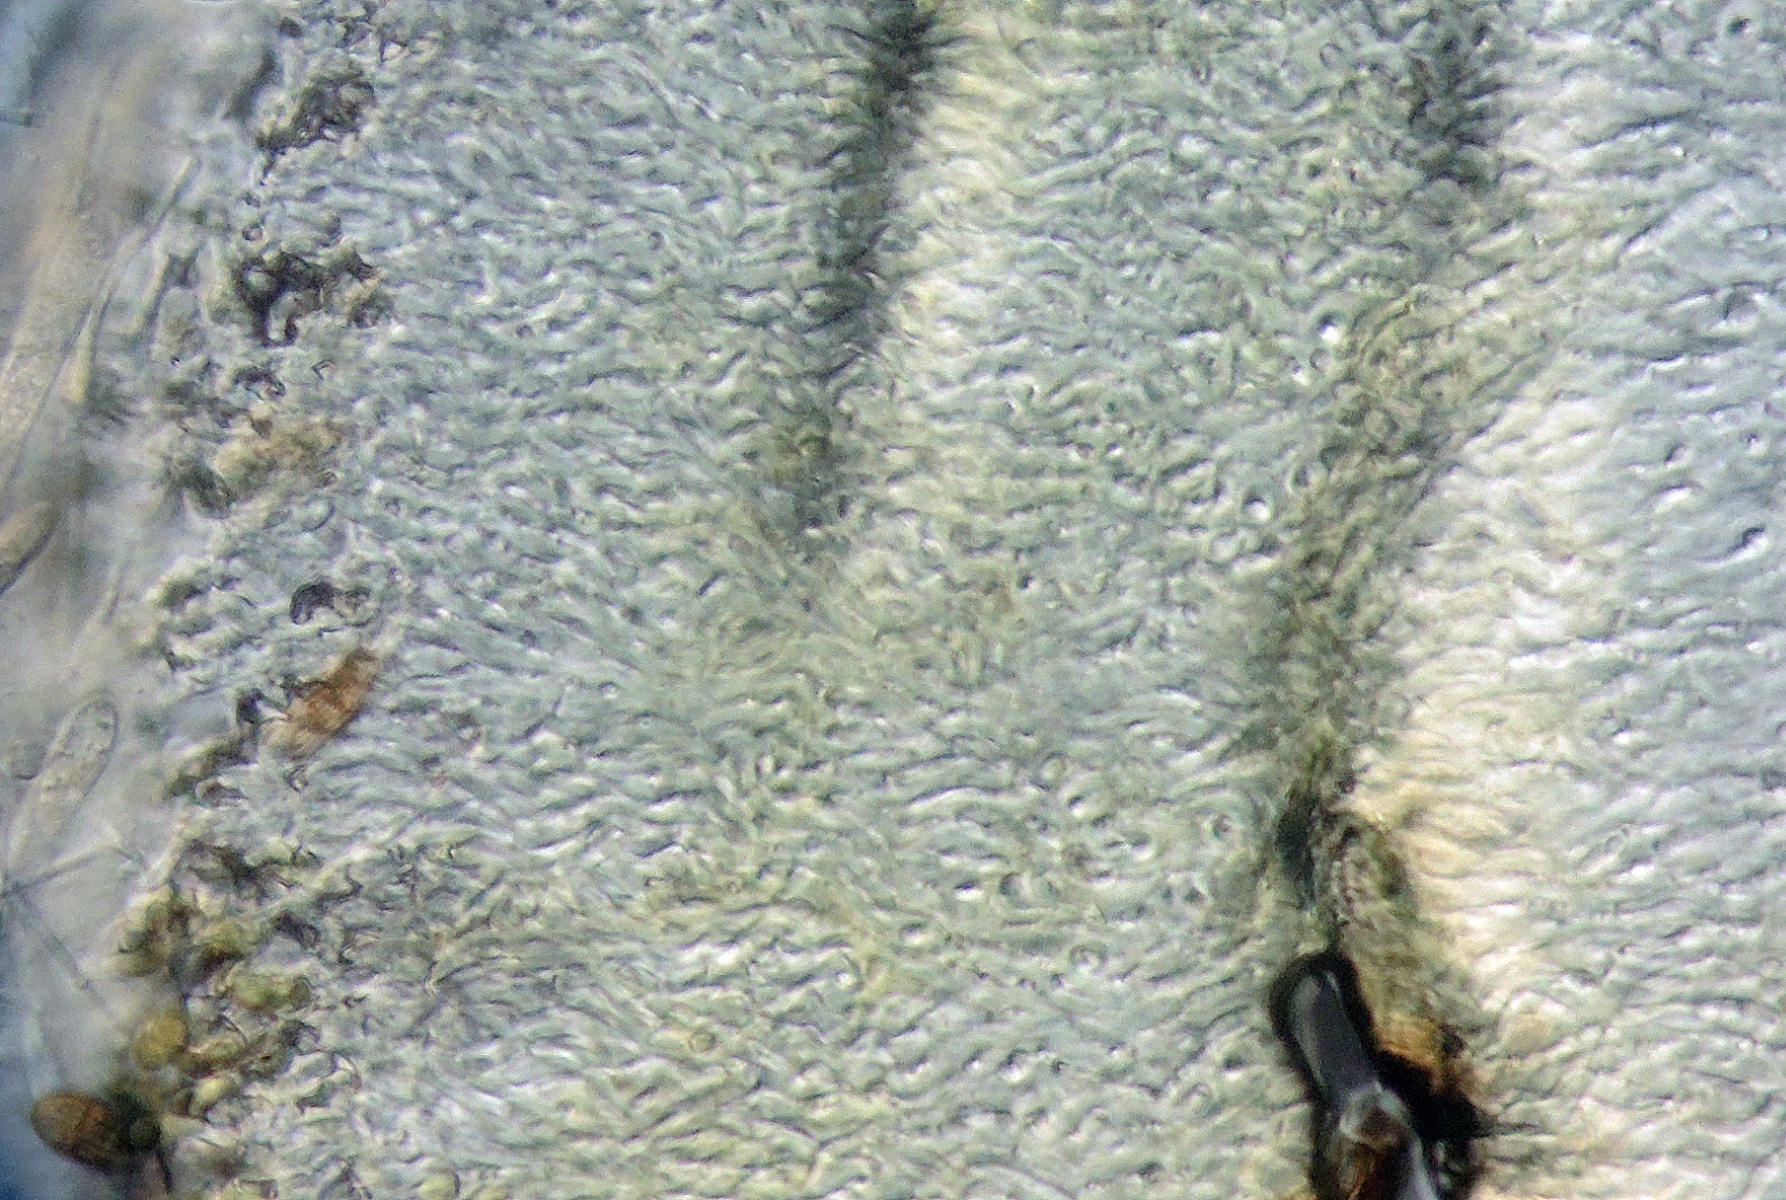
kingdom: Fungi
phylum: Ascomycota
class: Leotiomycetes
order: Helotiales
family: Pezizellaceae
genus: Calycina
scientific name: Calycina scolochloae
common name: bambus-gulskive
